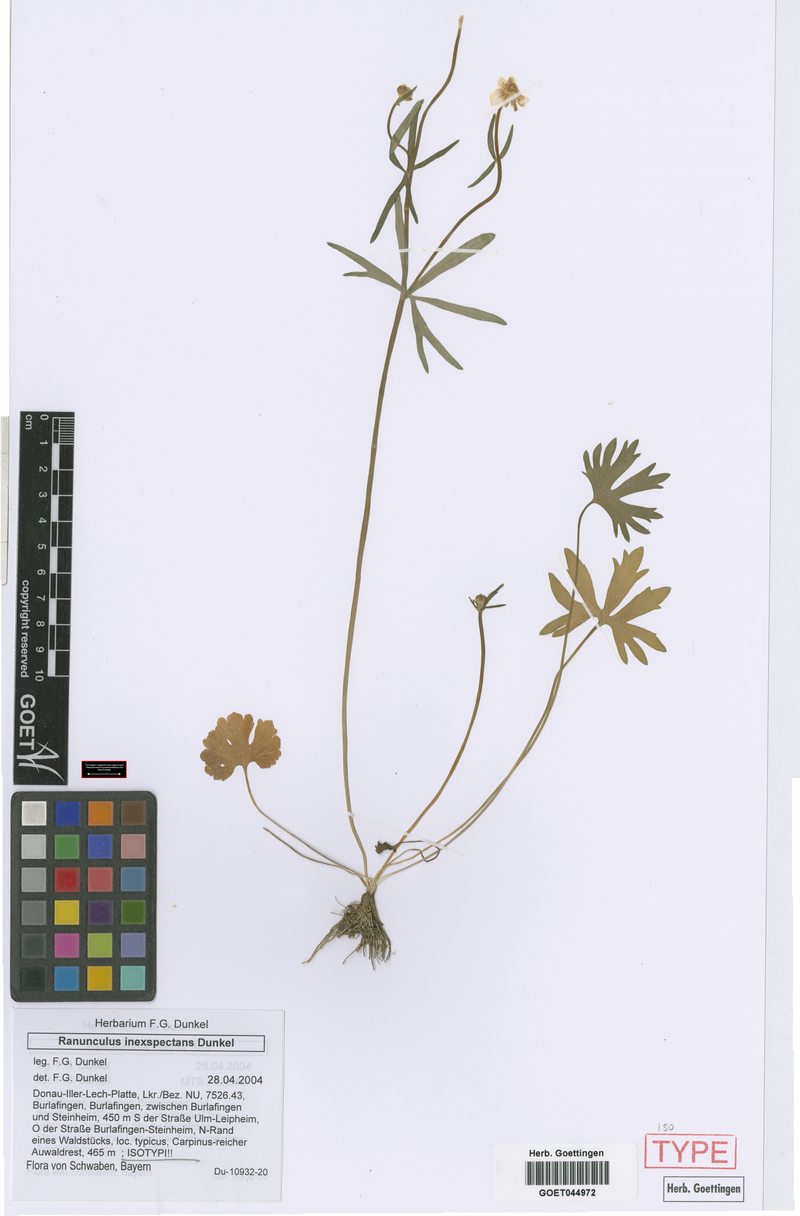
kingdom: Plantae
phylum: Tracheophyta
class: Magnoliopsida
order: Ranunculales
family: Ranunculaceae
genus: Ranunculus
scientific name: Ranunculus inexspectans
